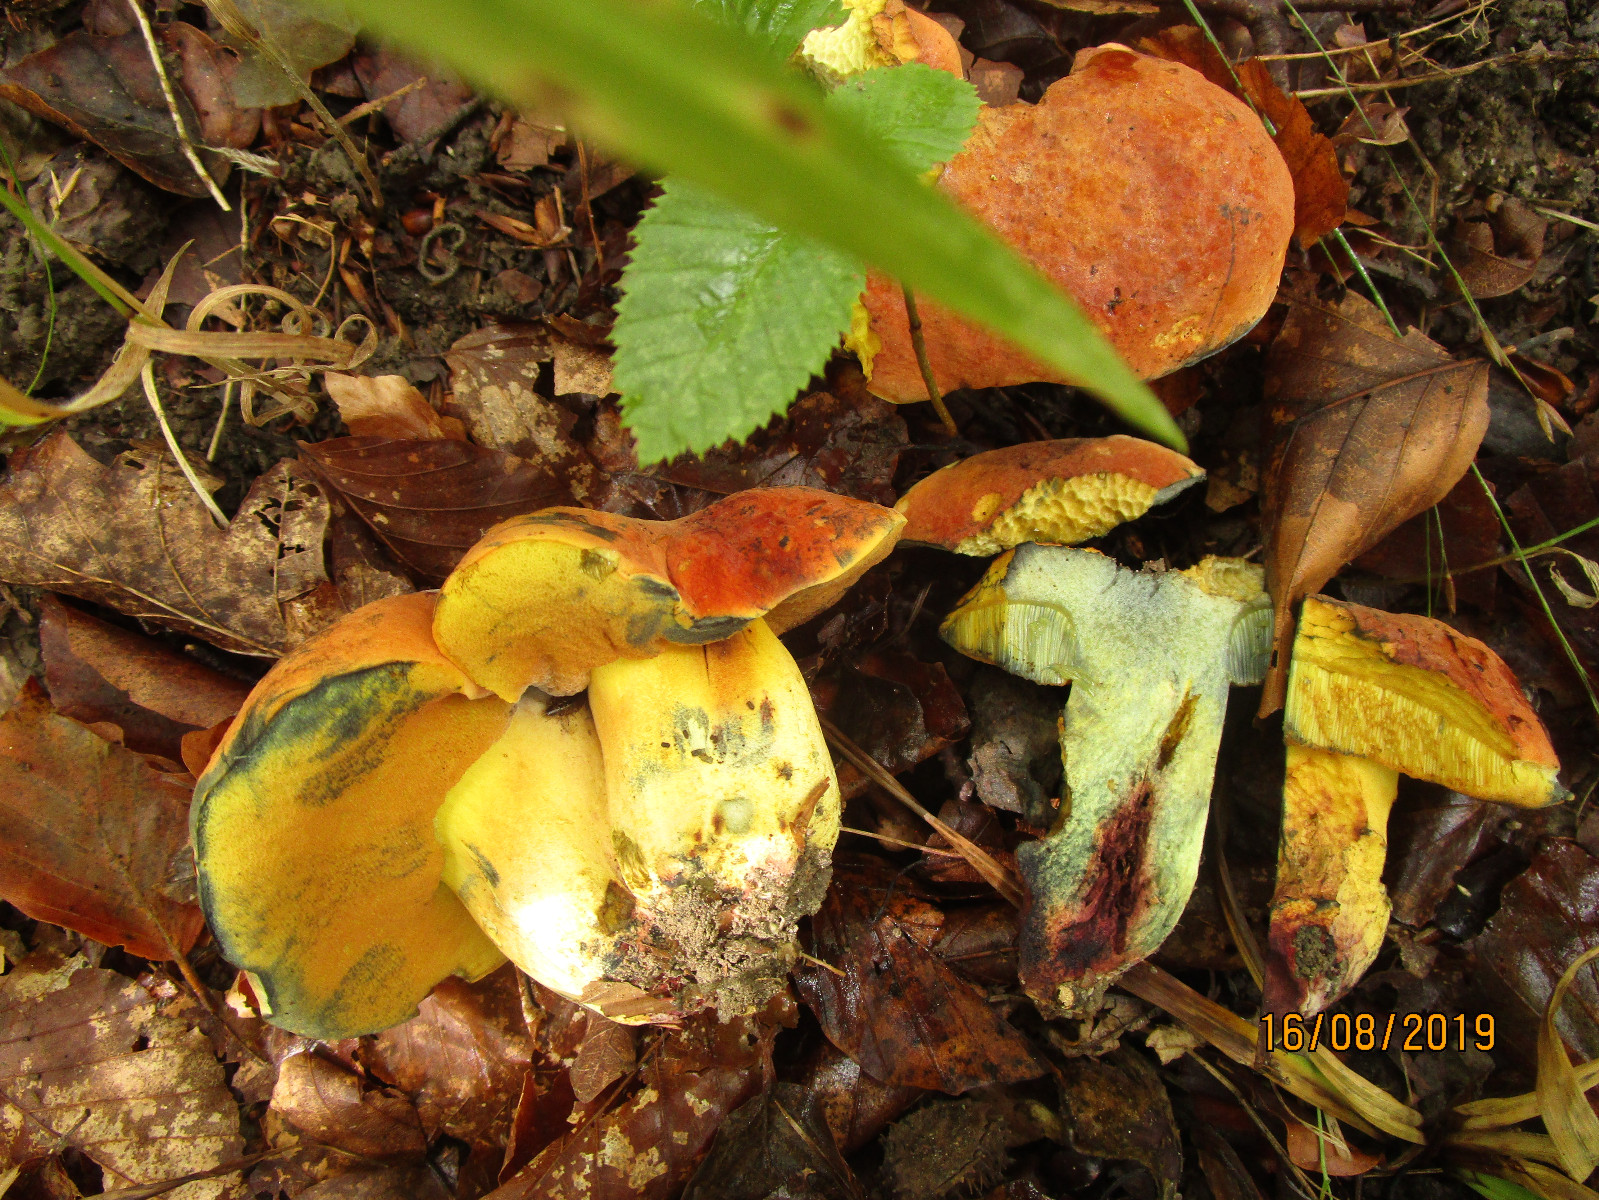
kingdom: Fungi
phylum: Basidiomycota
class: Agaricomycetes
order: Boletales
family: Boletaceae
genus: Suillellus
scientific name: Suillellus queletii
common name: glatstokket indigorørhat
